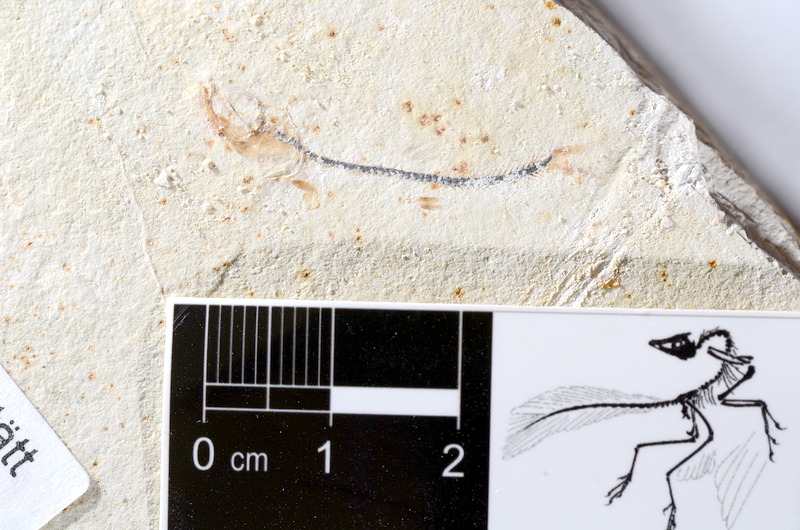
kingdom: Animalia
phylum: Chordata
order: Salmoniformes
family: Orthogonikleithridae
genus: Orthogonikleithrus
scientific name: Orthogonikleithrus hoelli
